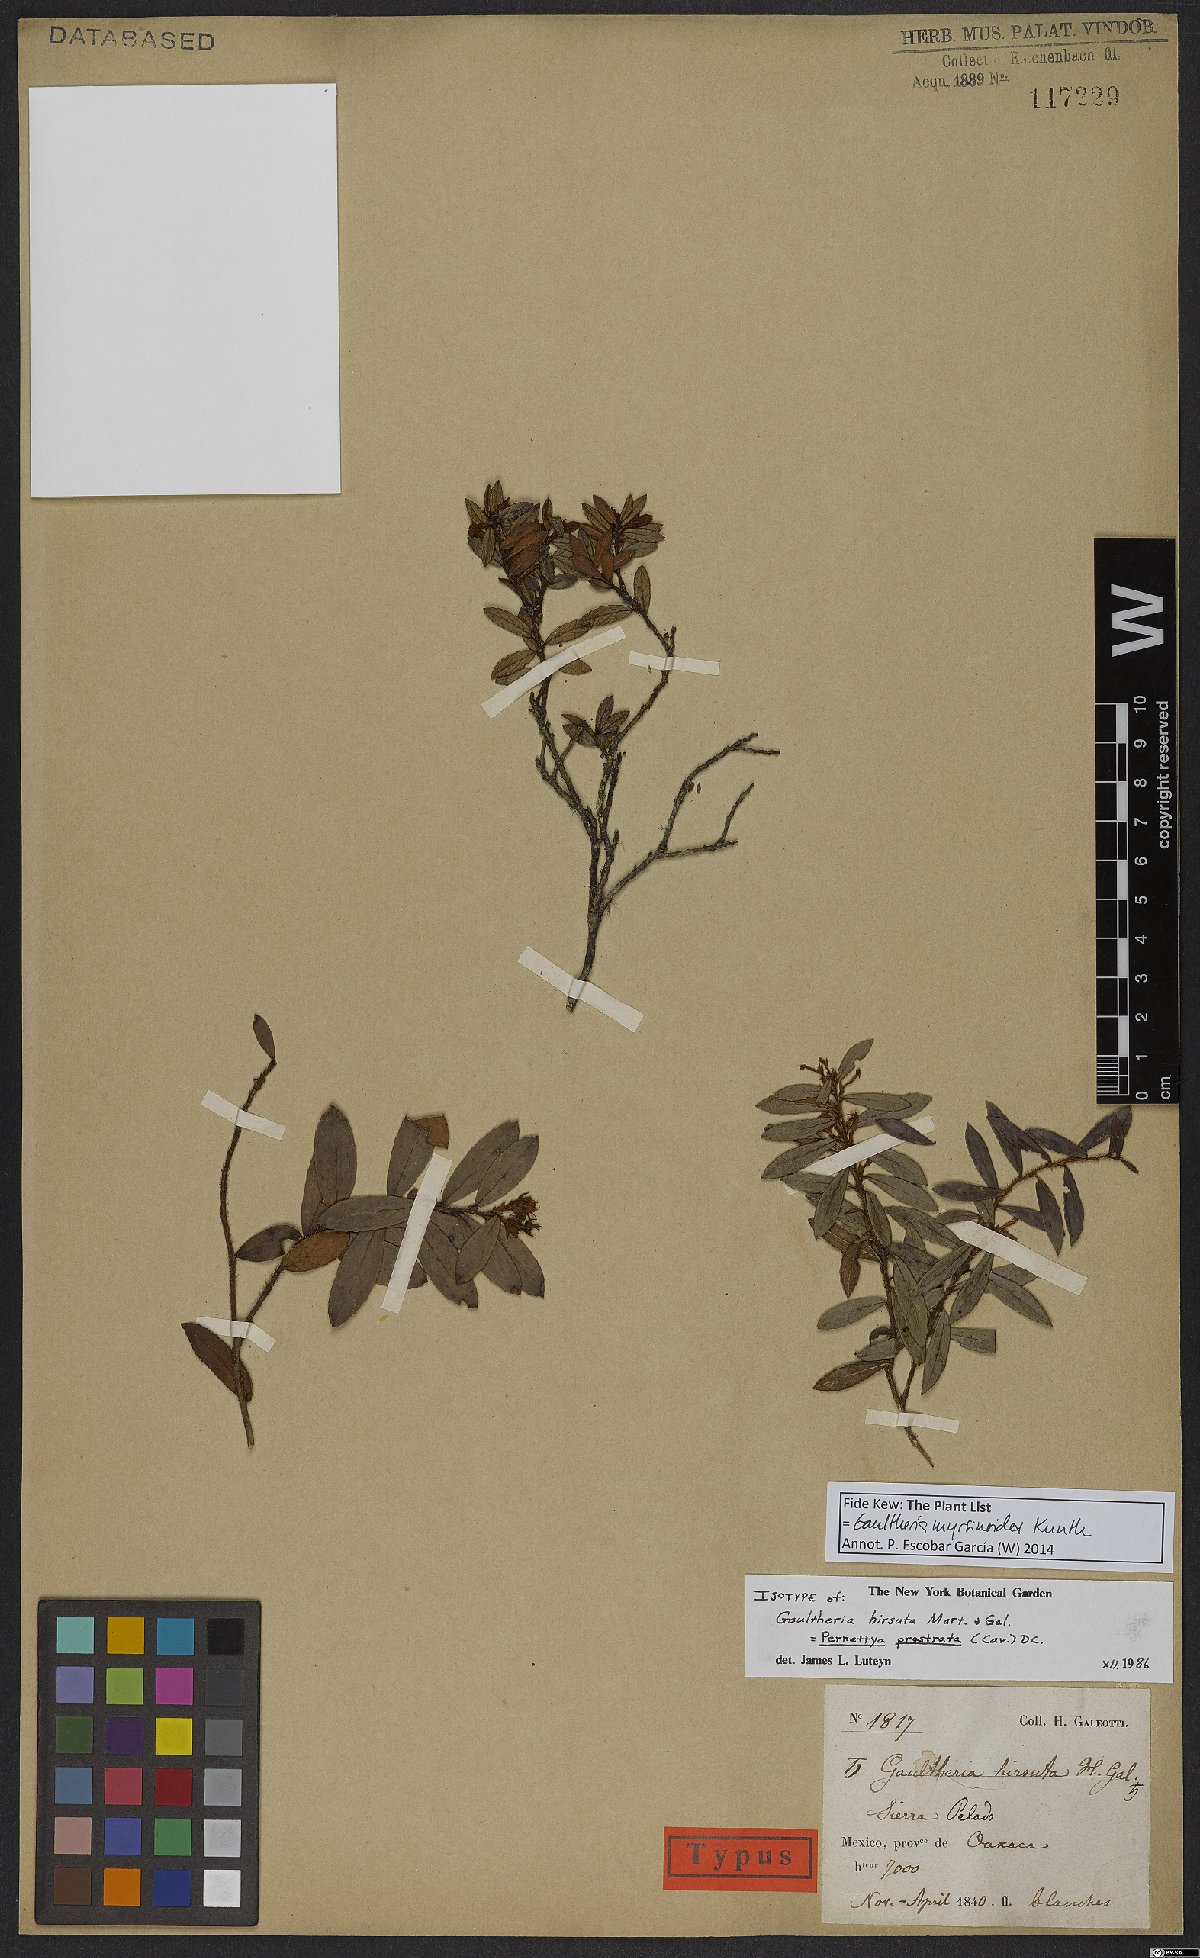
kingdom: Plantae
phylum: Tracheophyta
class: Magnoliopsida
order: Ericales
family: Ericaceae
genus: Gaultheria
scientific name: Gaultheria myrsinoides
